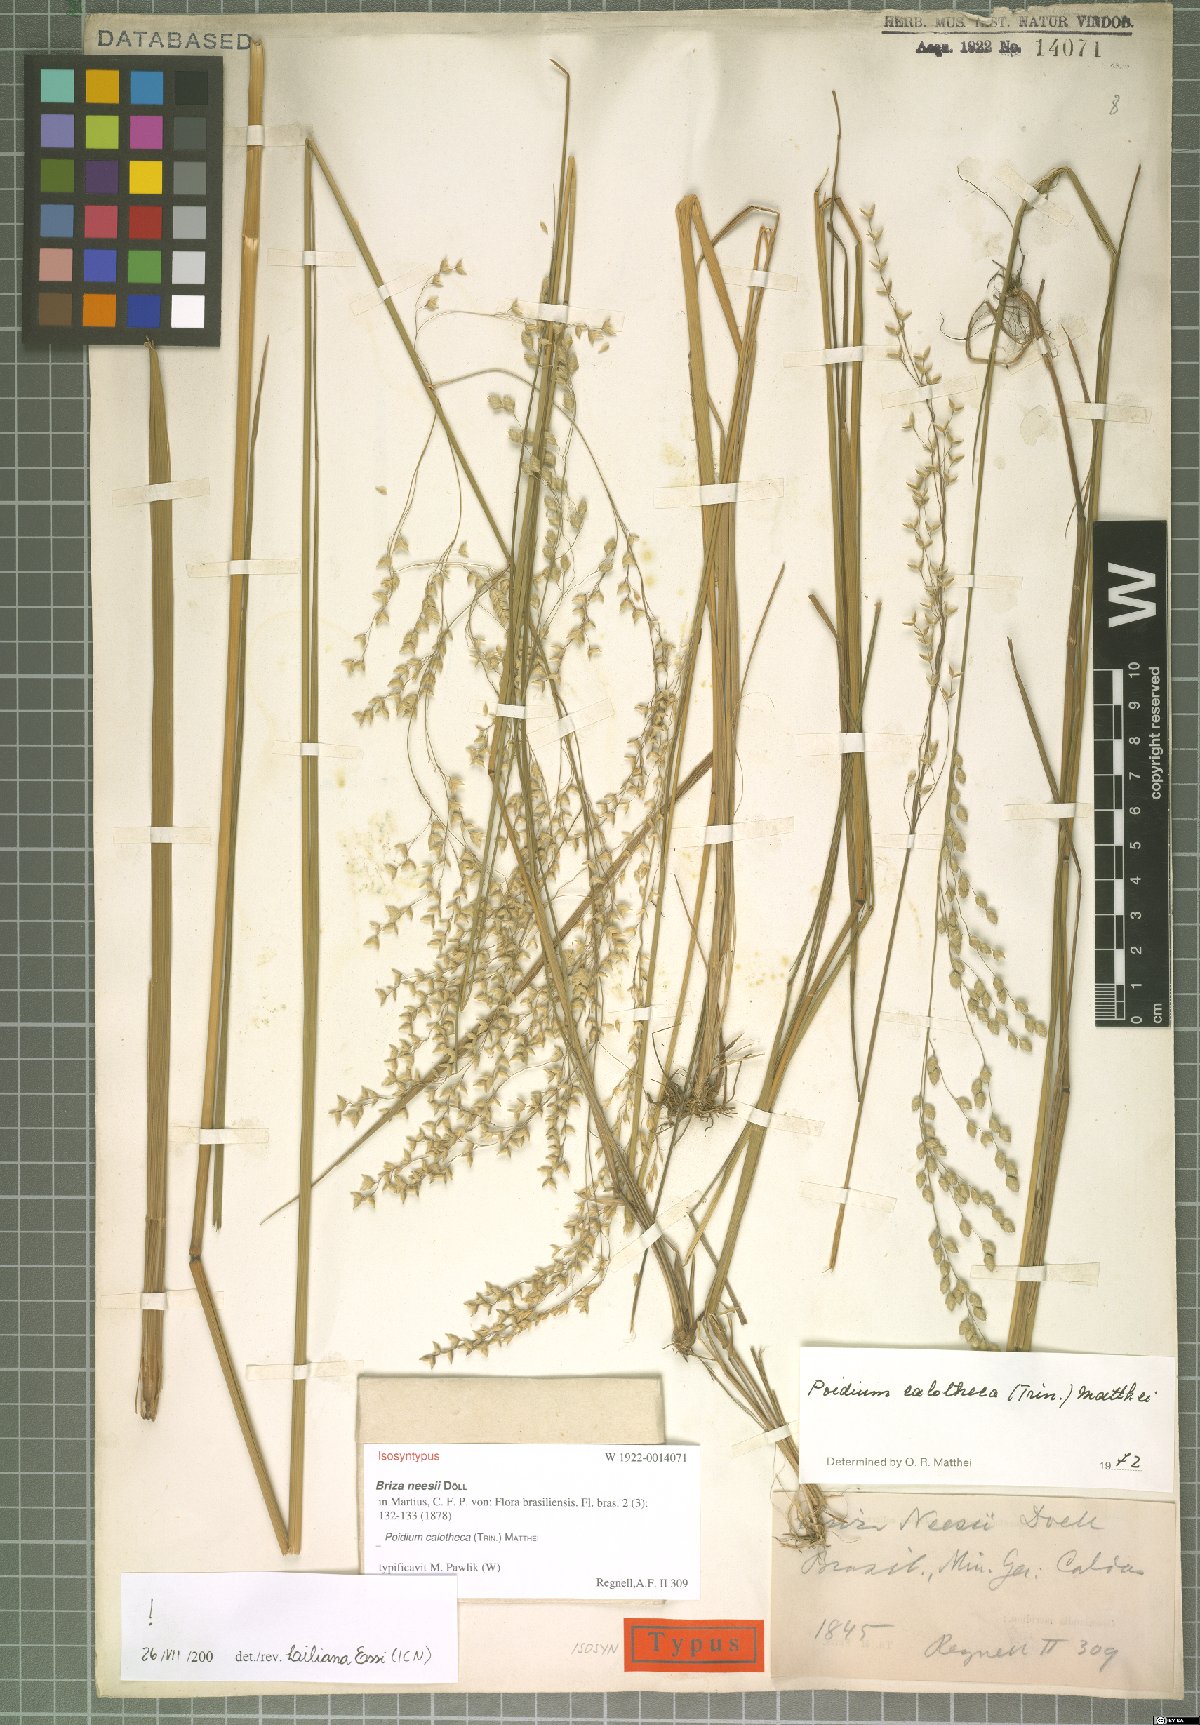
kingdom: Plantae
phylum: Tracheophyta
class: Liliopsida
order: Poales
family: Poaceae
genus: Poidium
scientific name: Poidium calotheca
